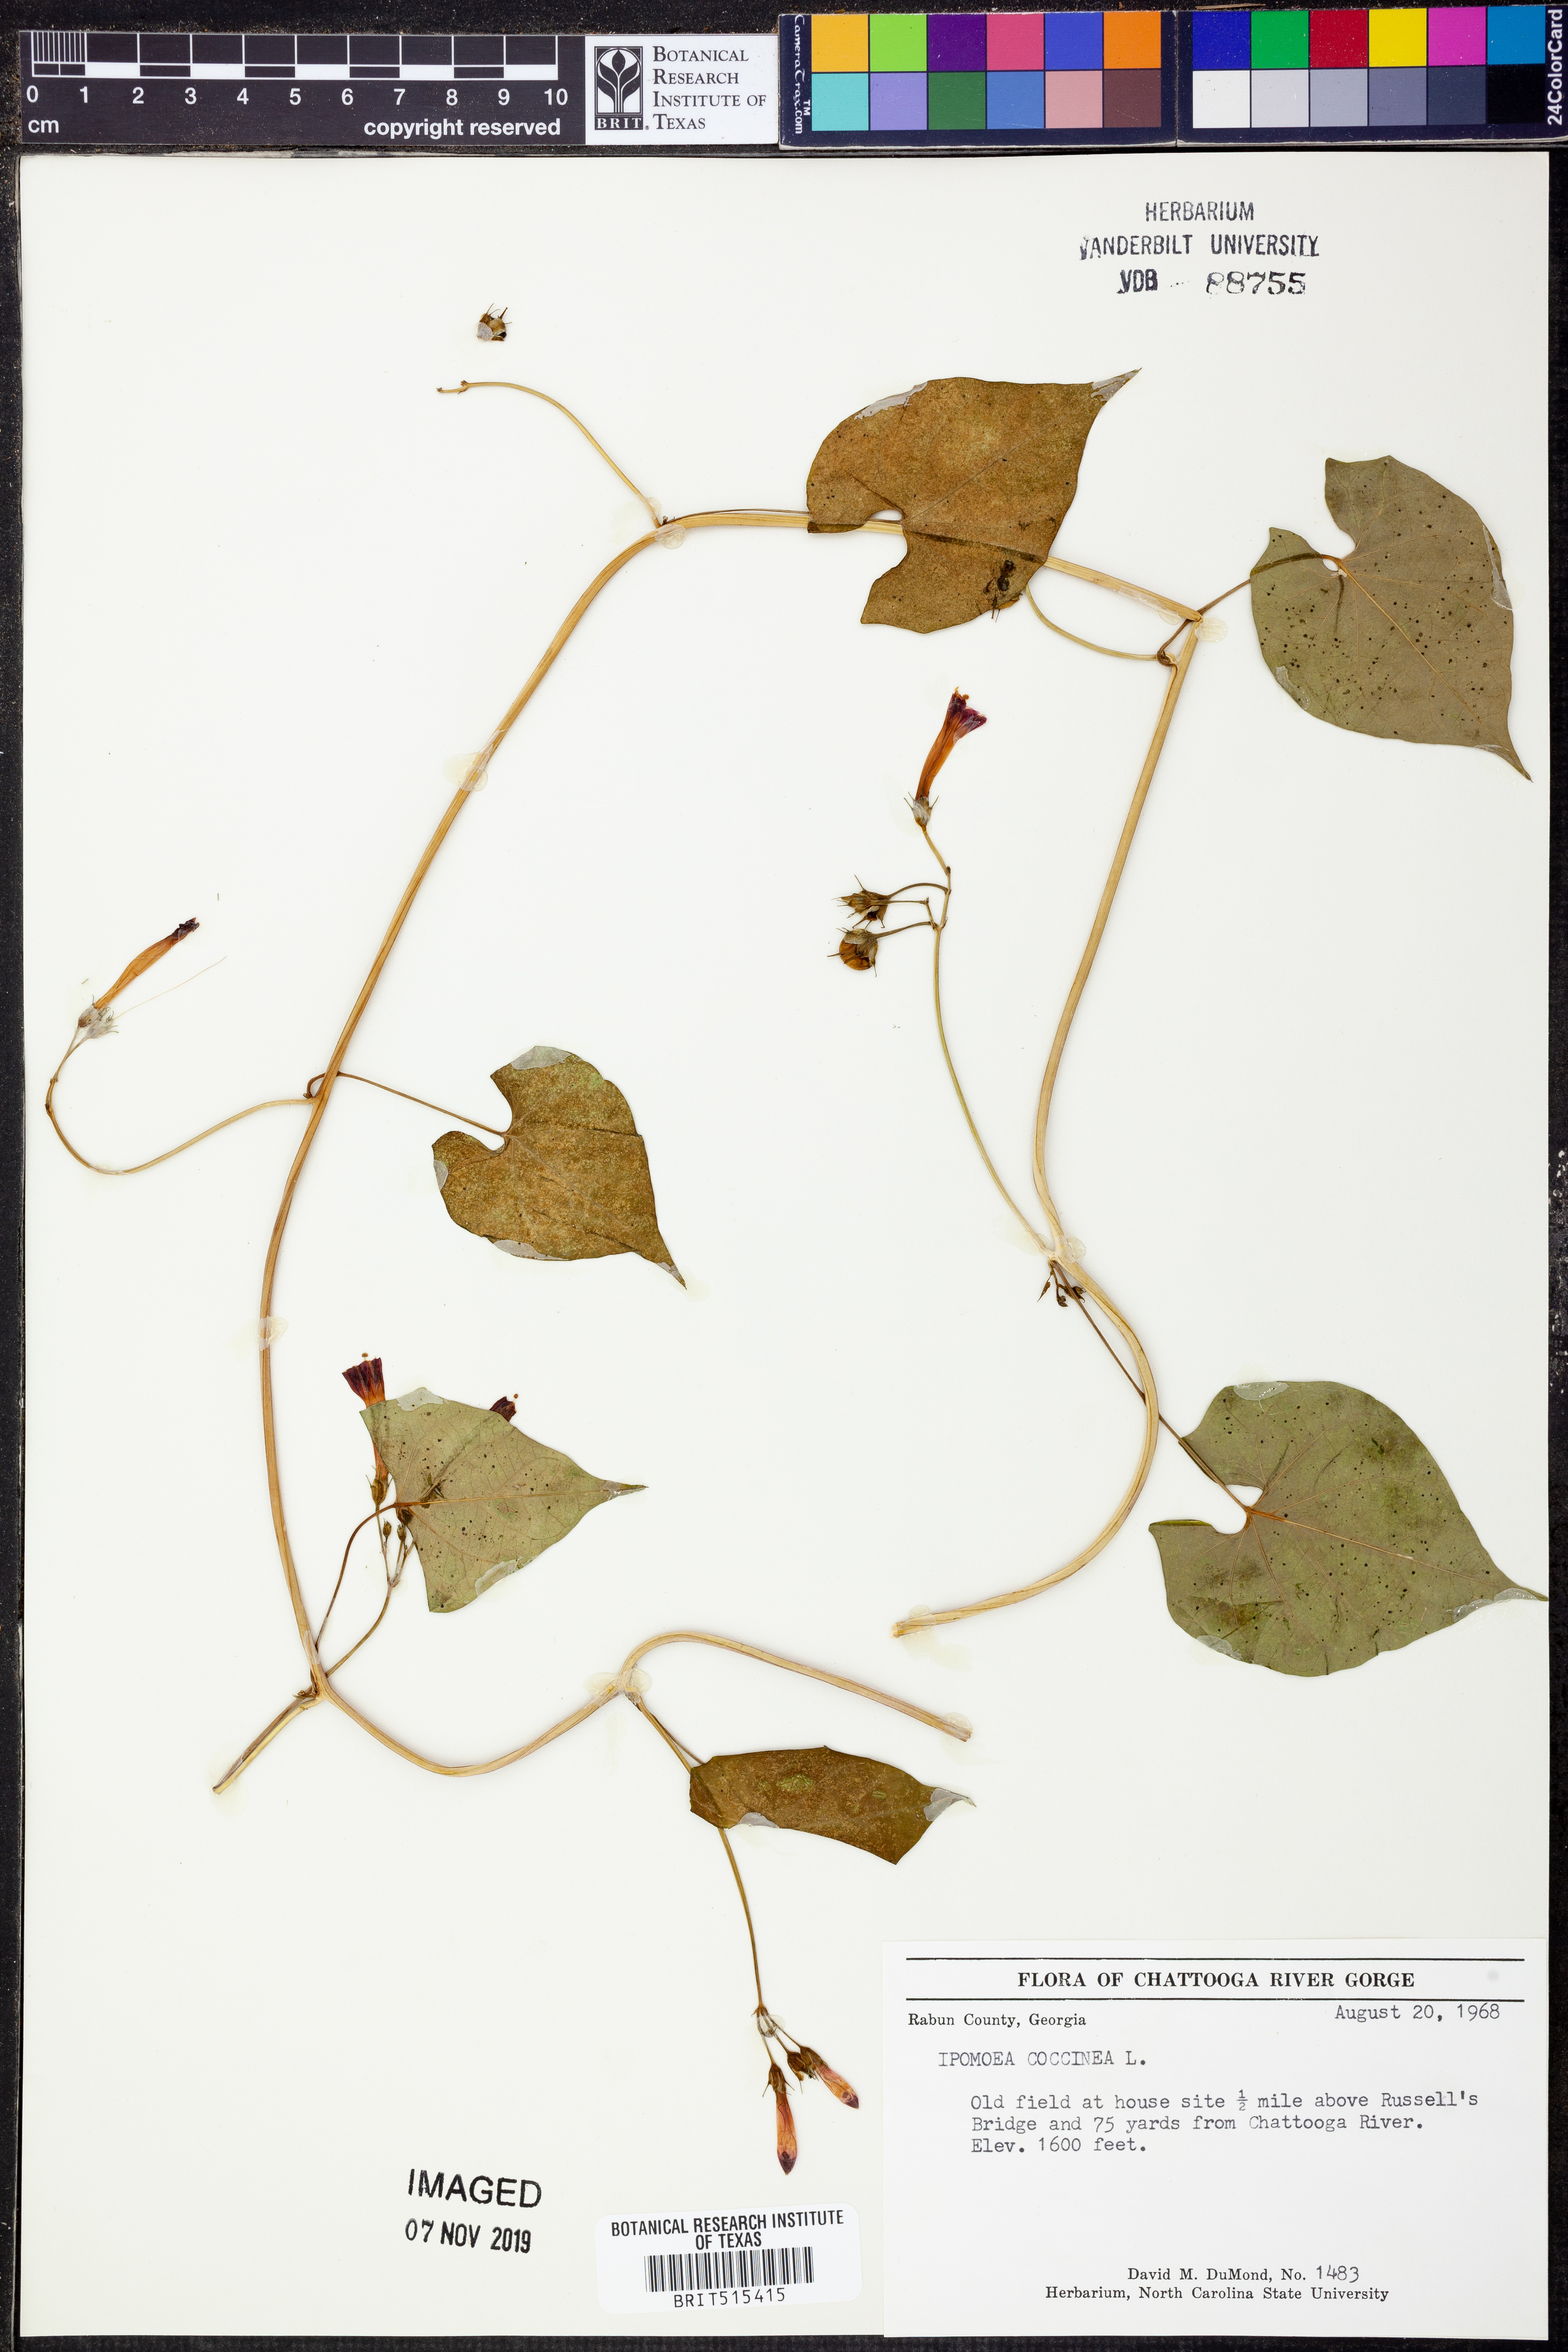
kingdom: Plantae
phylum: Tracheophyta
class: Magnoliopsida
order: Solanales
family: Convolvulaceae
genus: Ipomoea
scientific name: Ipomoea coccinea
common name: Red morning-glory
